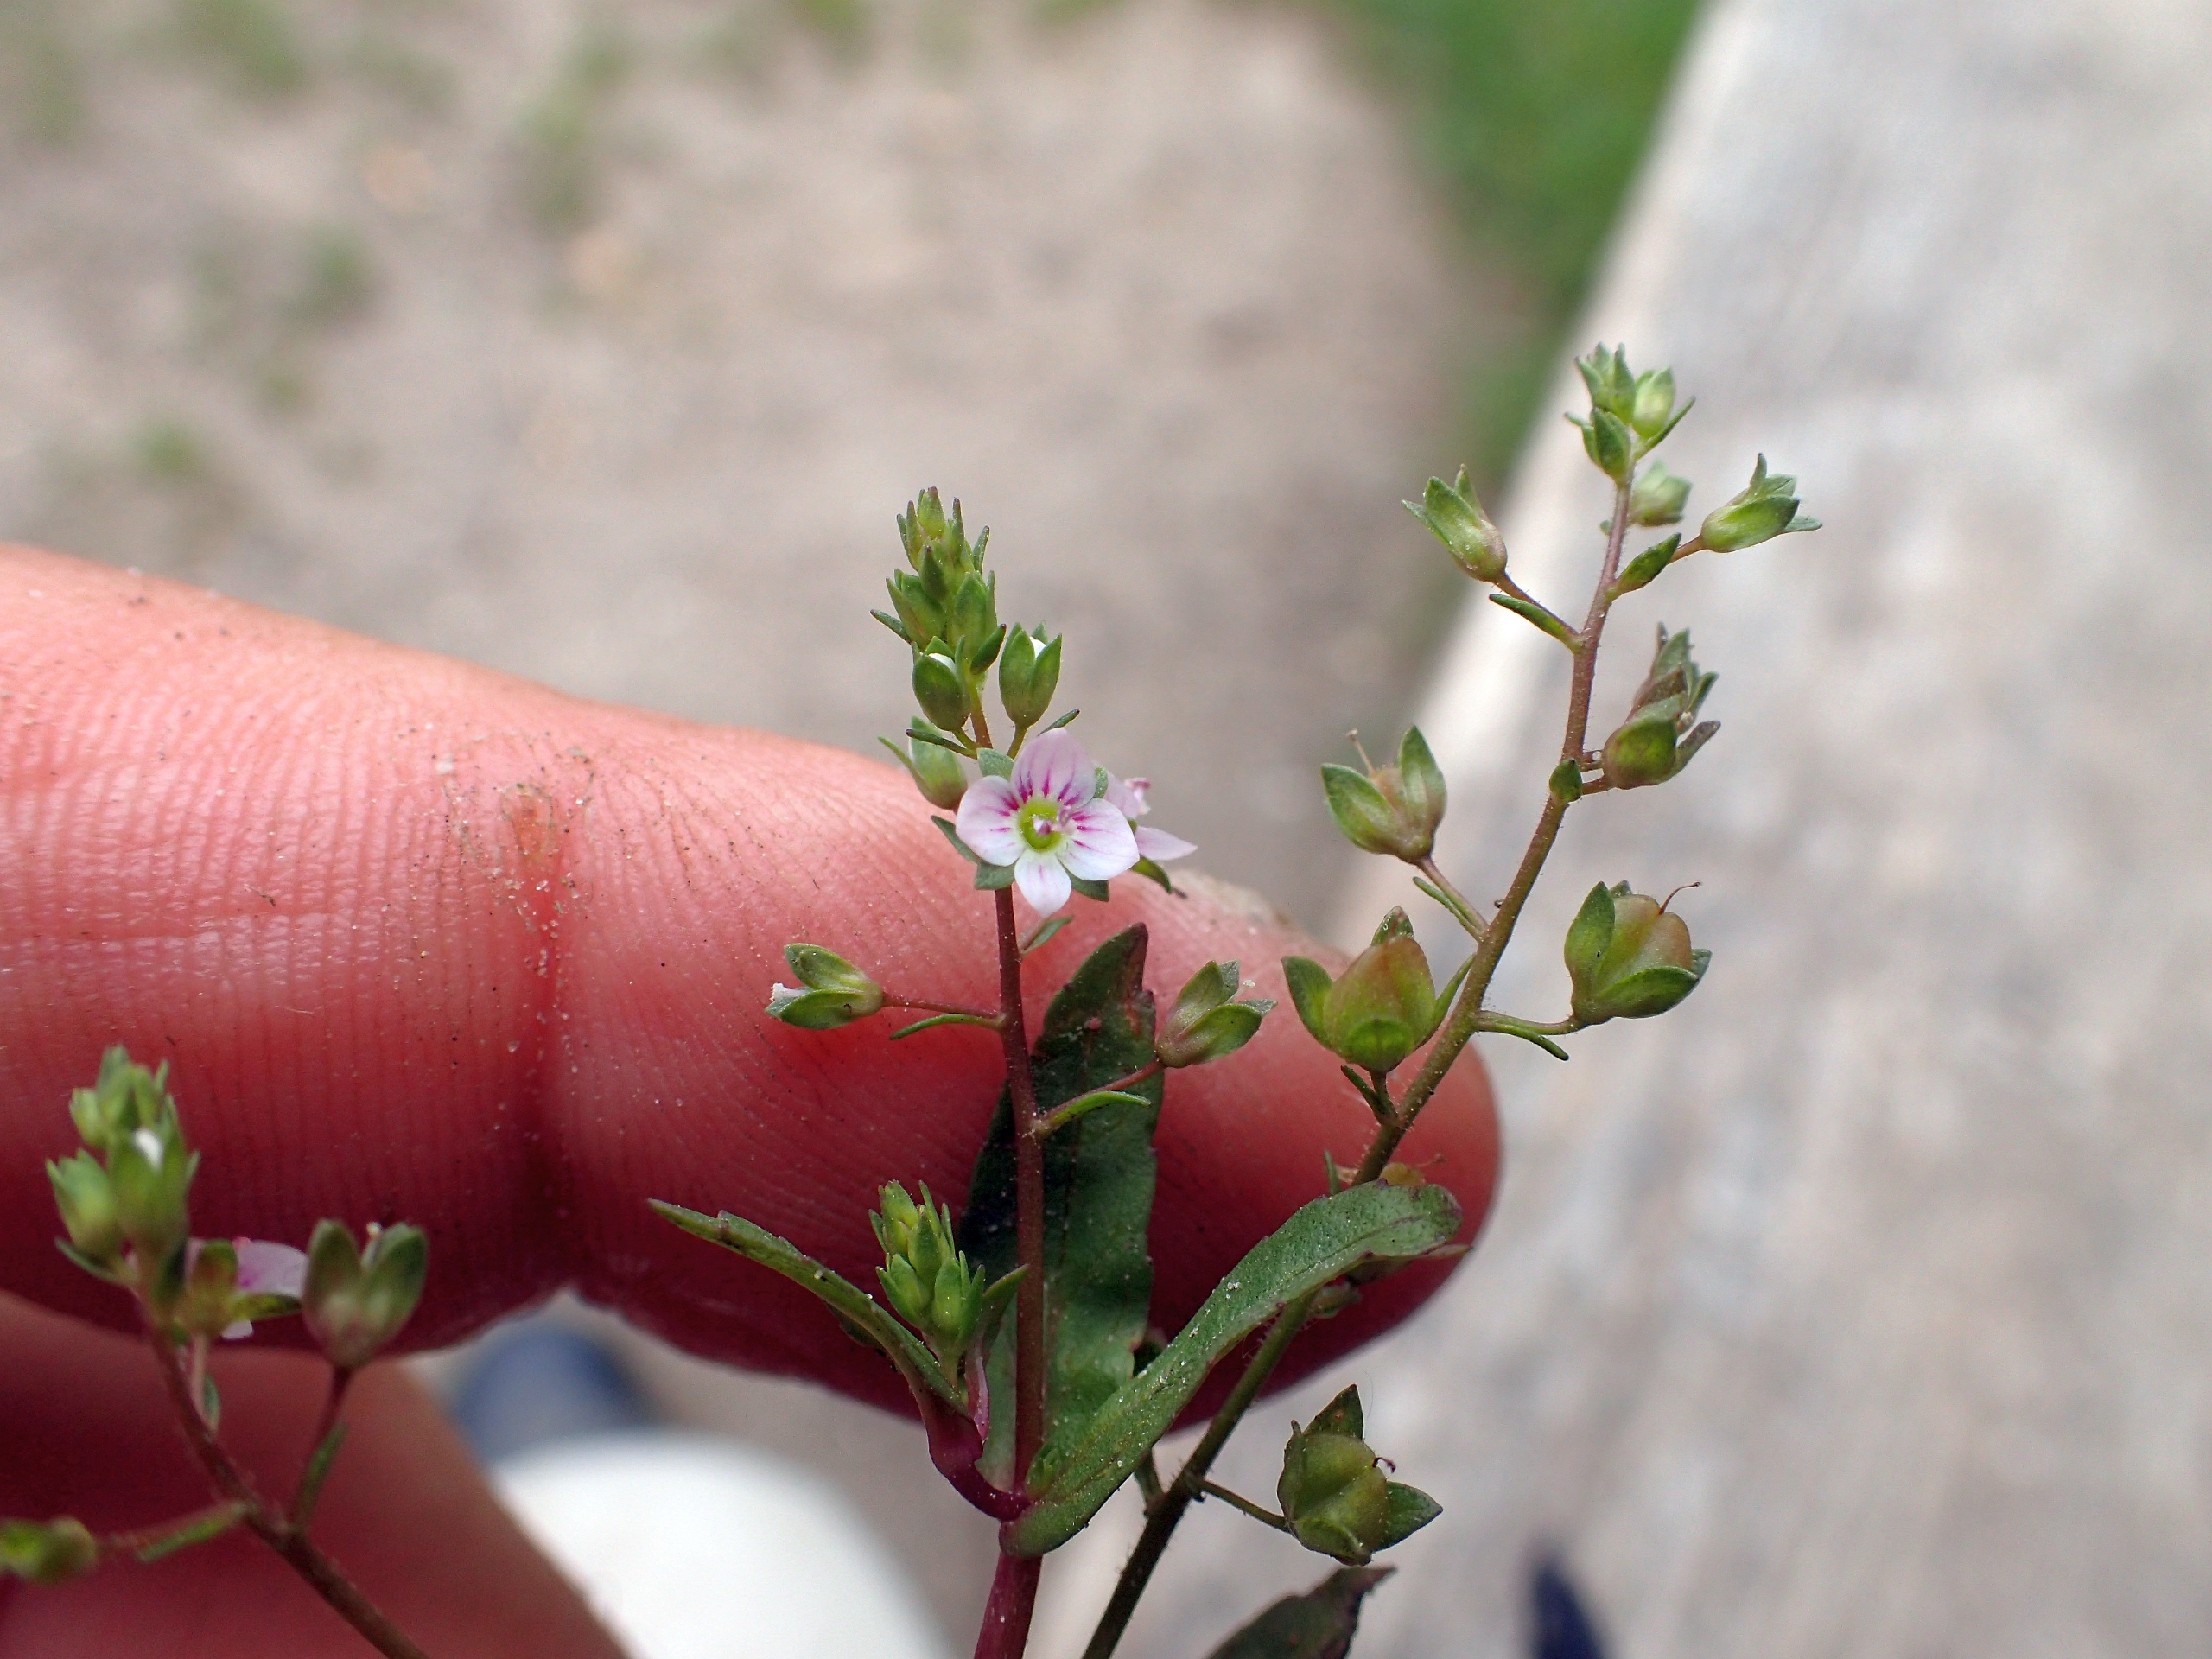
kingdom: Plantae
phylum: Tracheophyta
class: Magnoliopsida
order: Lamiales
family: Plantaginaceae
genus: Veronica
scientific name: Veronica catenata
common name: Vand-ærenpris
